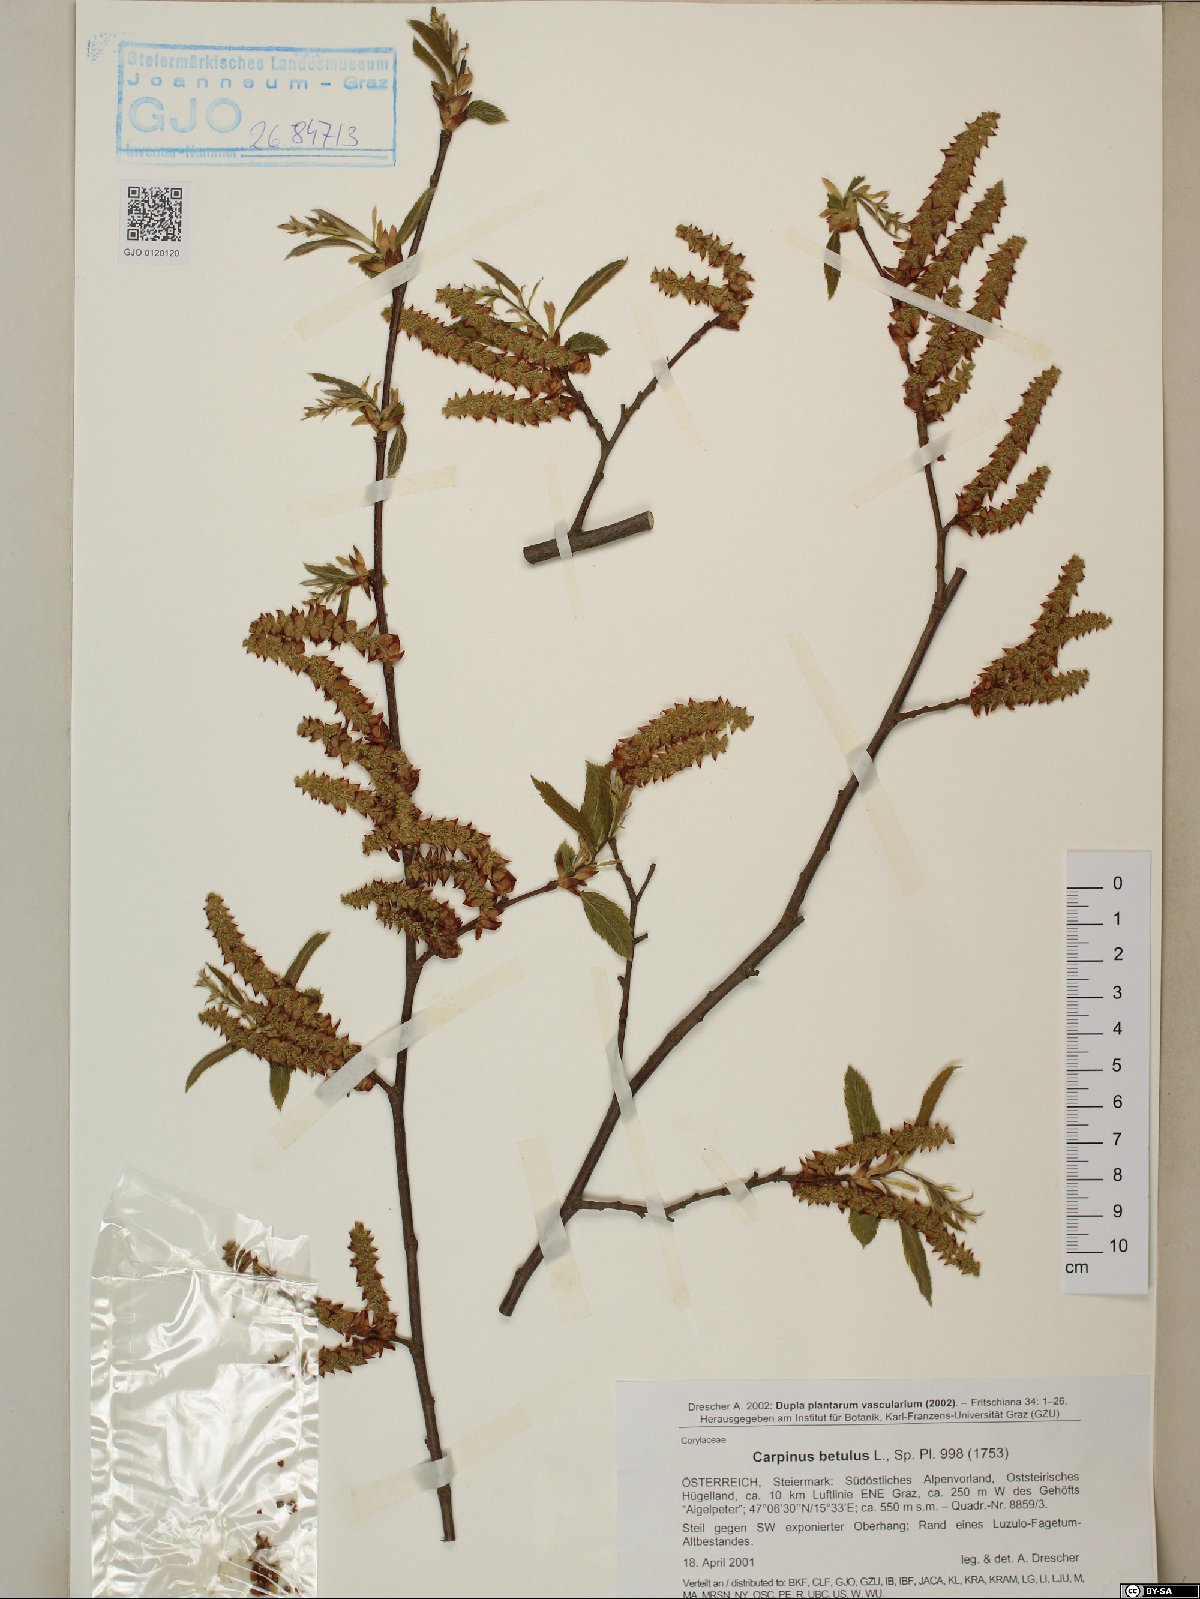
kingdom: Plantae
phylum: Tracheophyta
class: Magnoliopsida
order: Fagales
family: Betulaceae
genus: Carpinus
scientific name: Carpinus betulus
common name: Hornbeam
